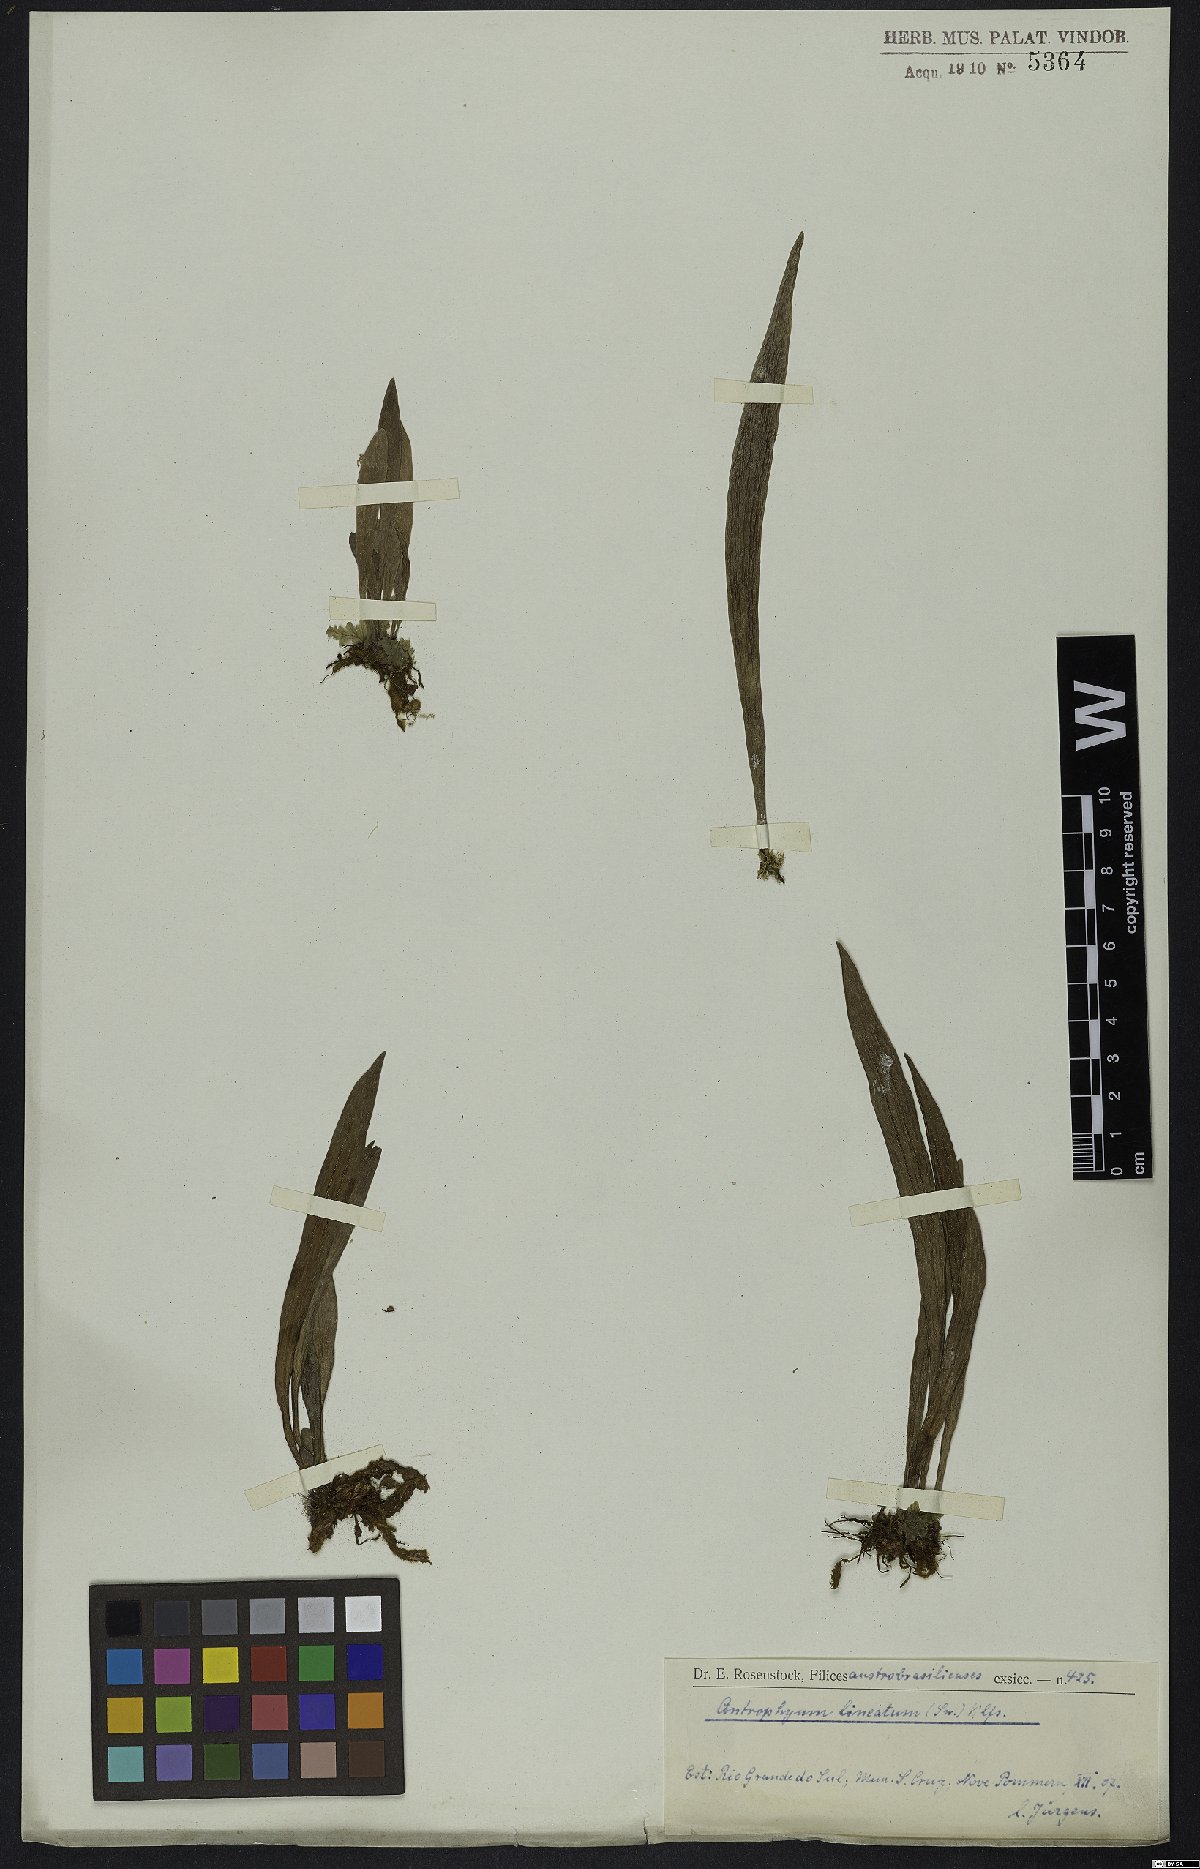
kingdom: Plantae
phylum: Tracheophyta
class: Polypodiopsida
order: Polypodiales
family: Pteridaceae
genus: Polytaenium
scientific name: Polytaenium lineatum
